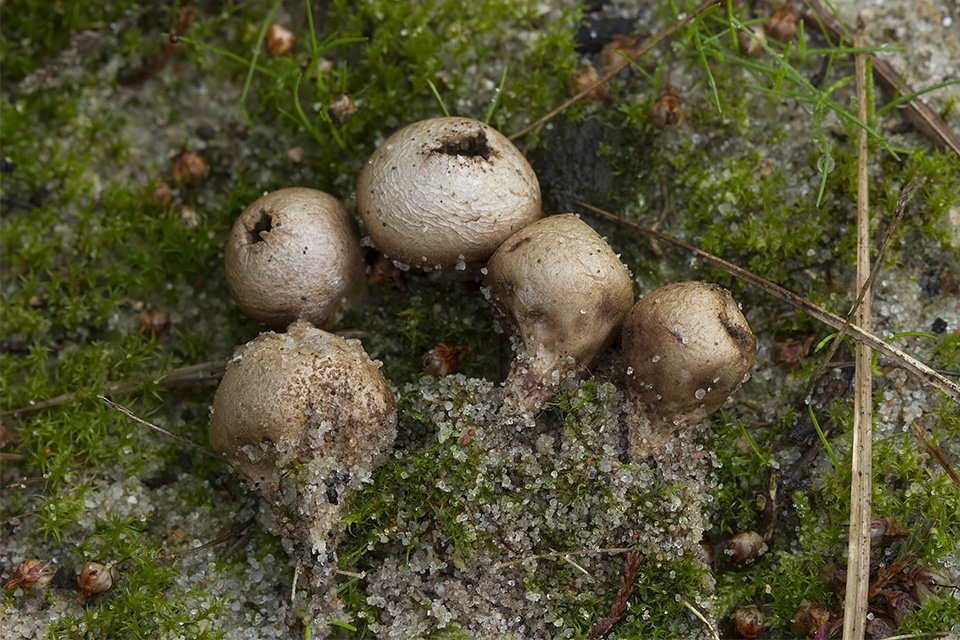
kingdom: Fungi
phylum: Basidiomycota
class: Agaricomycetes
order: Agaricales
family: Lycoperdaceae
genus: Lycoperdon
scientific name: Lycoperdon lividum
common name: mark-støvbold
